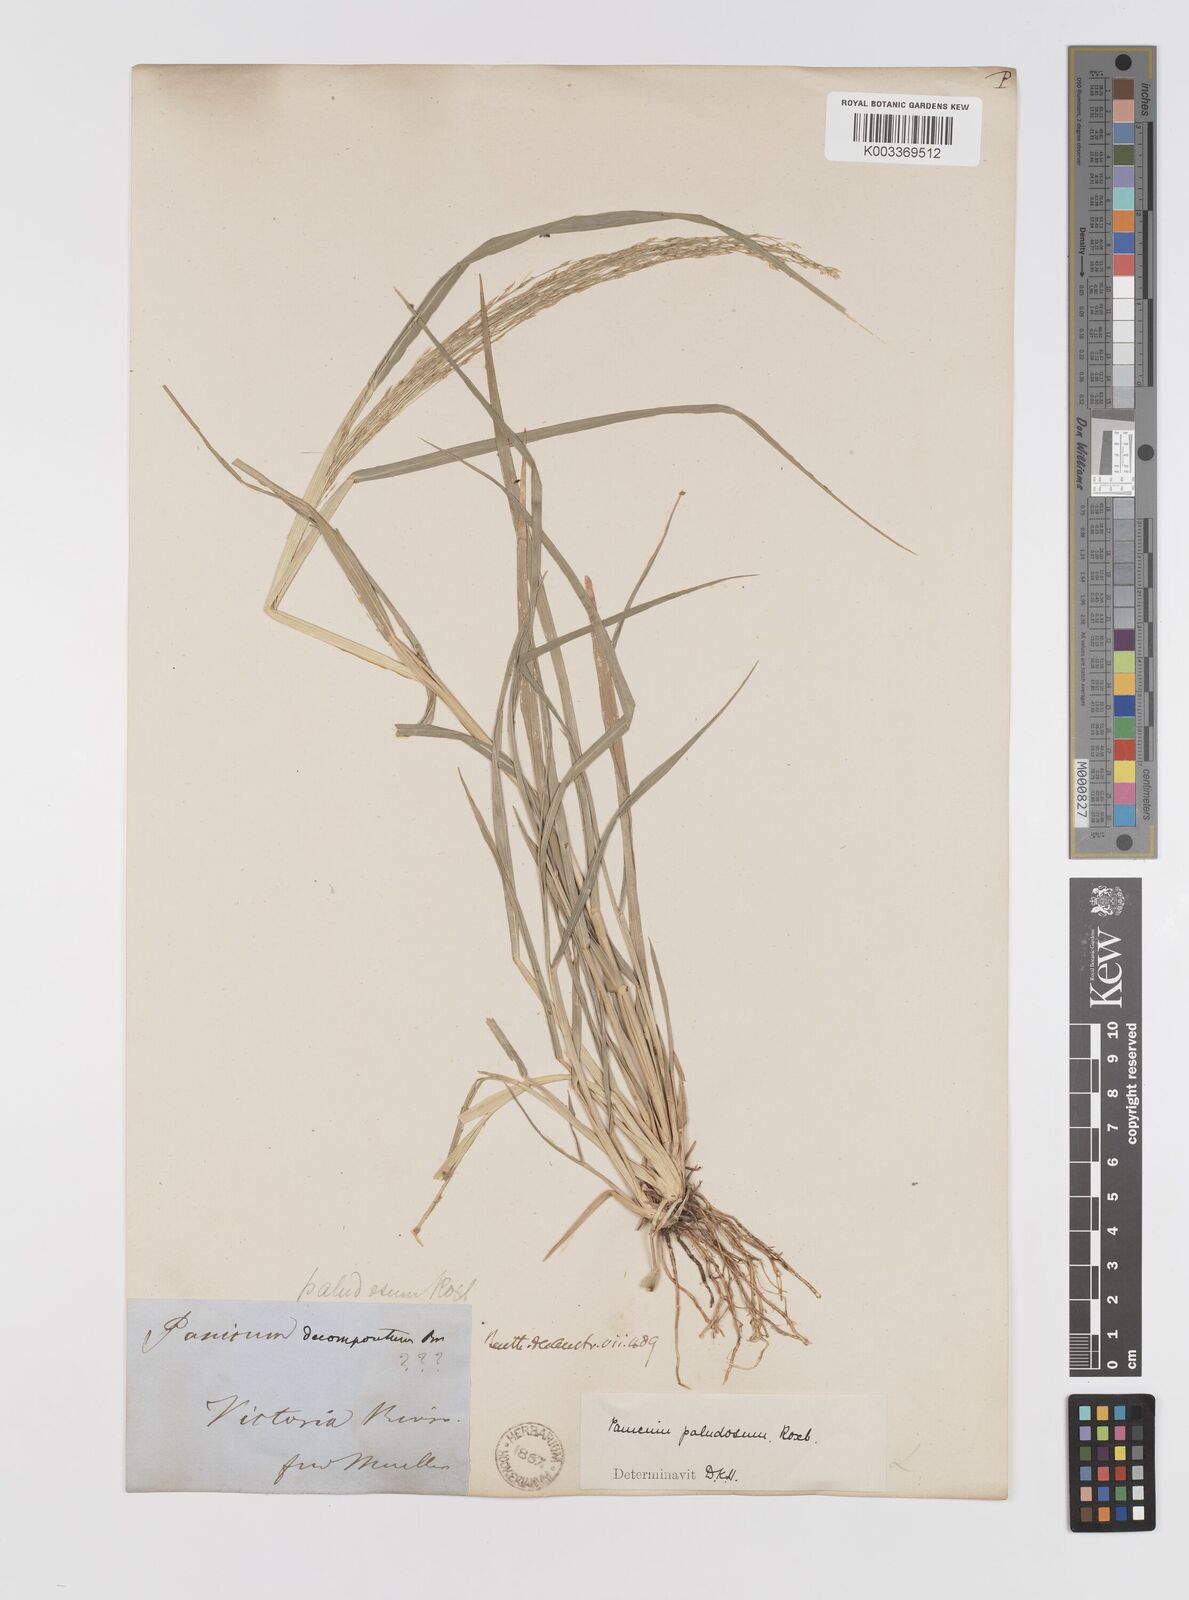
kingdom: Plantae
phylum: Tracheophyta
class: Liliopsida
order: Poales
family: Poaceae
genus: Louisiella
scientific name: Louisiella paludosa
